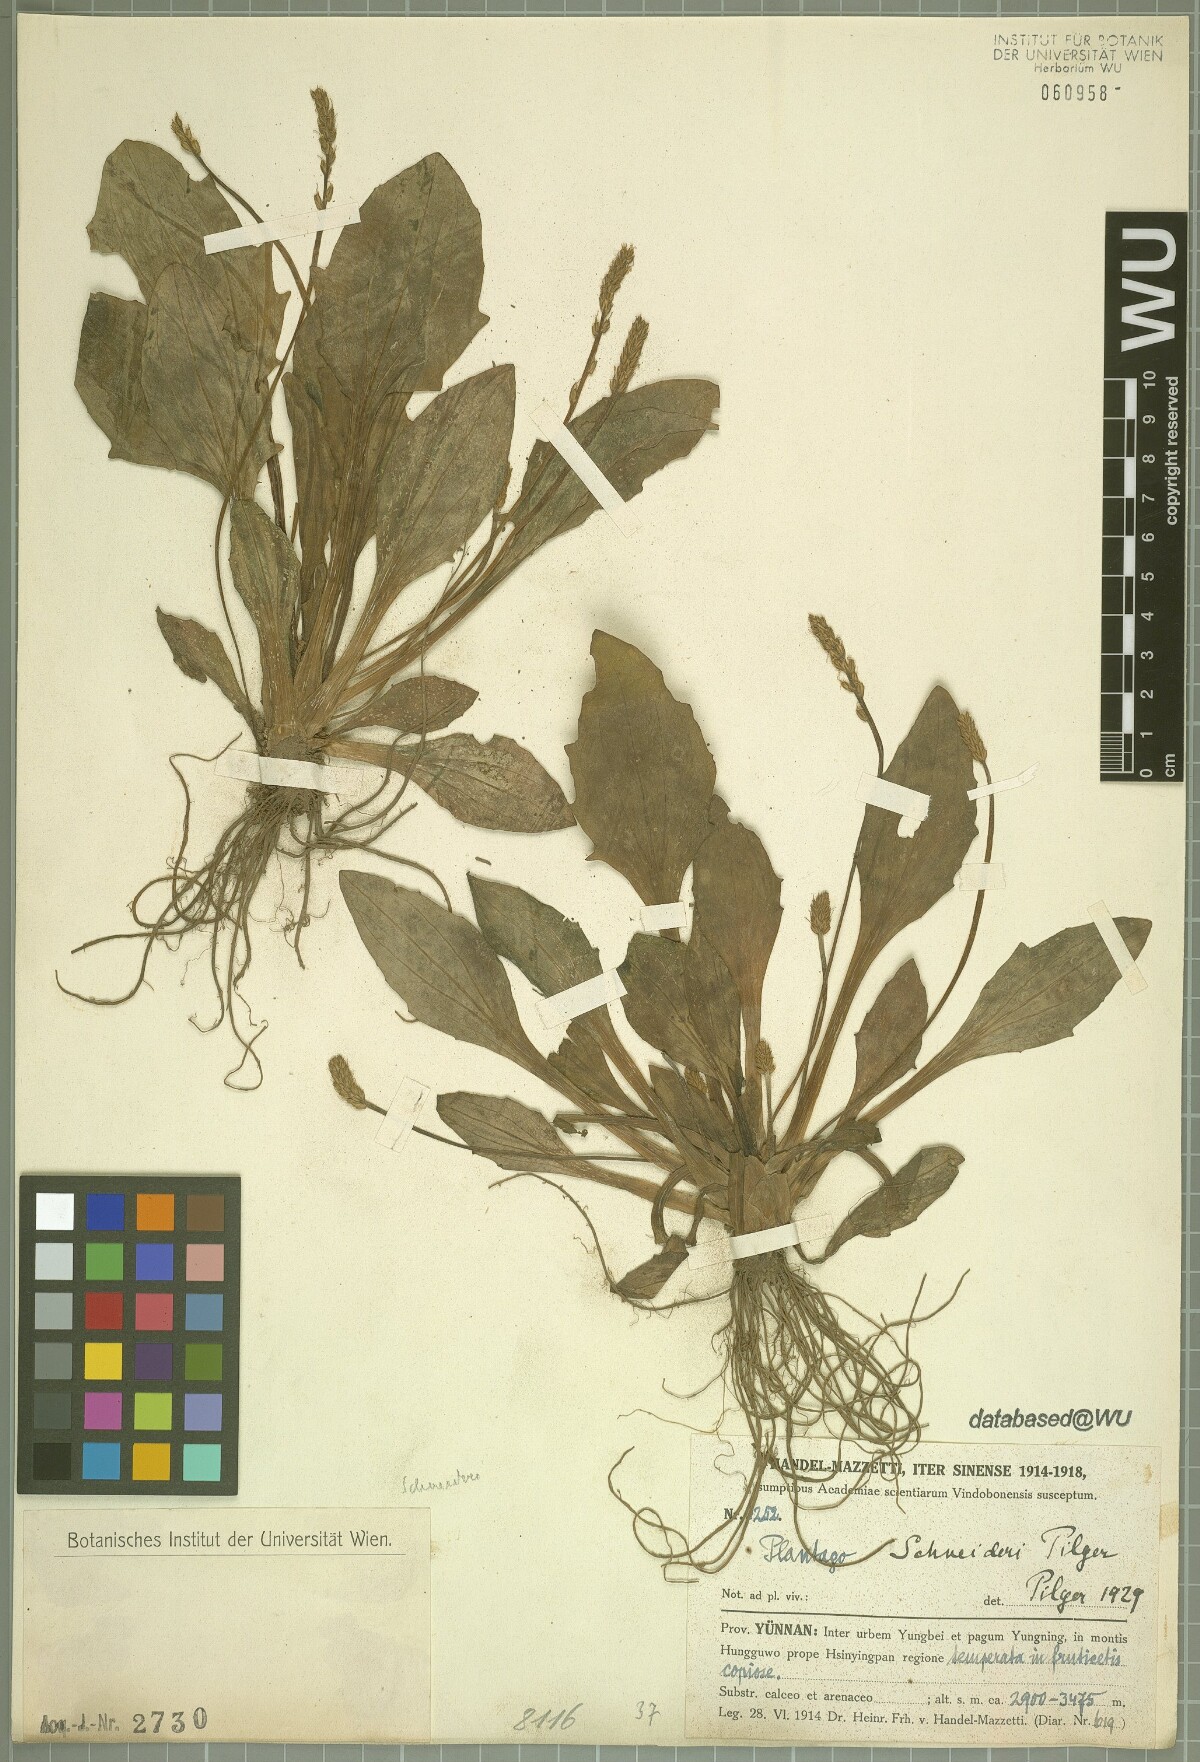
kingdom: Plantae
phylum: Tracheophyta
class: Magnoliopsida
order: Lamiales
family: Plantaginaceae
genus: Plantago
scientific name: Plantago cavaleriei
